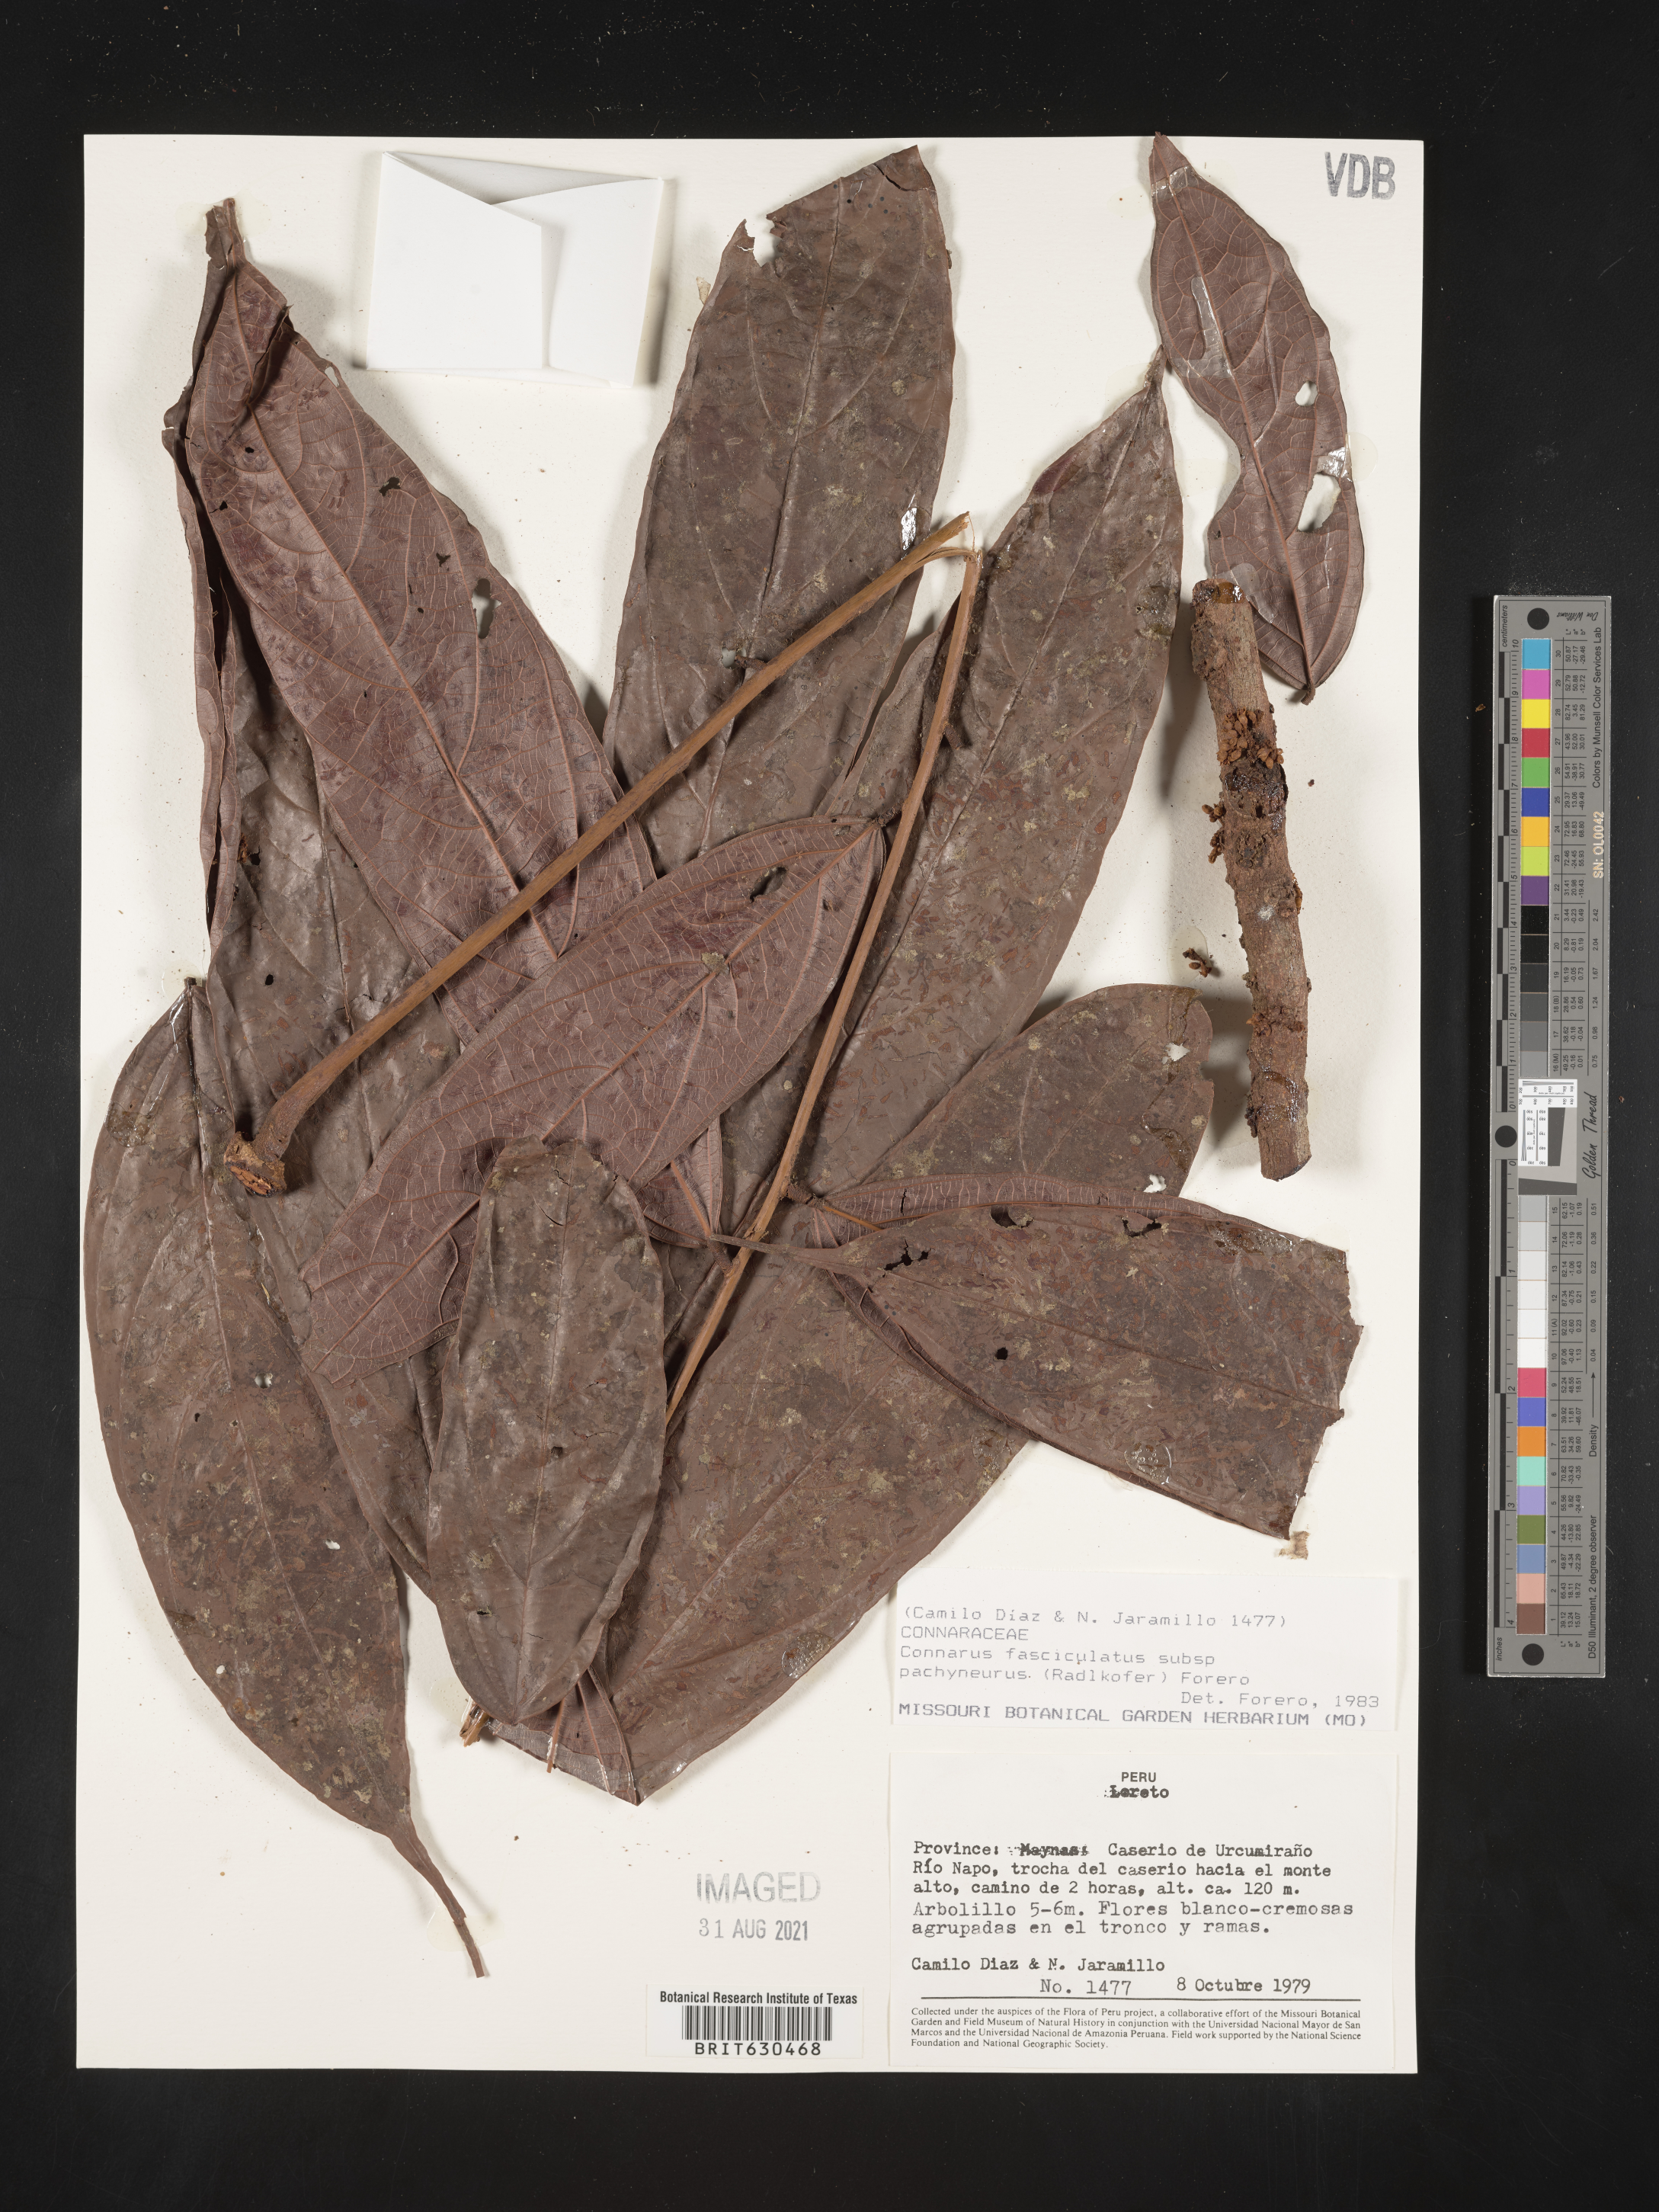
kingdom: Plantae
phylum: Tracheophyta
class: Magnoliopsida
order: Oxalidales
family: Connaraceae
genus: Connarus
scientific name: Connarus fasciculatus
